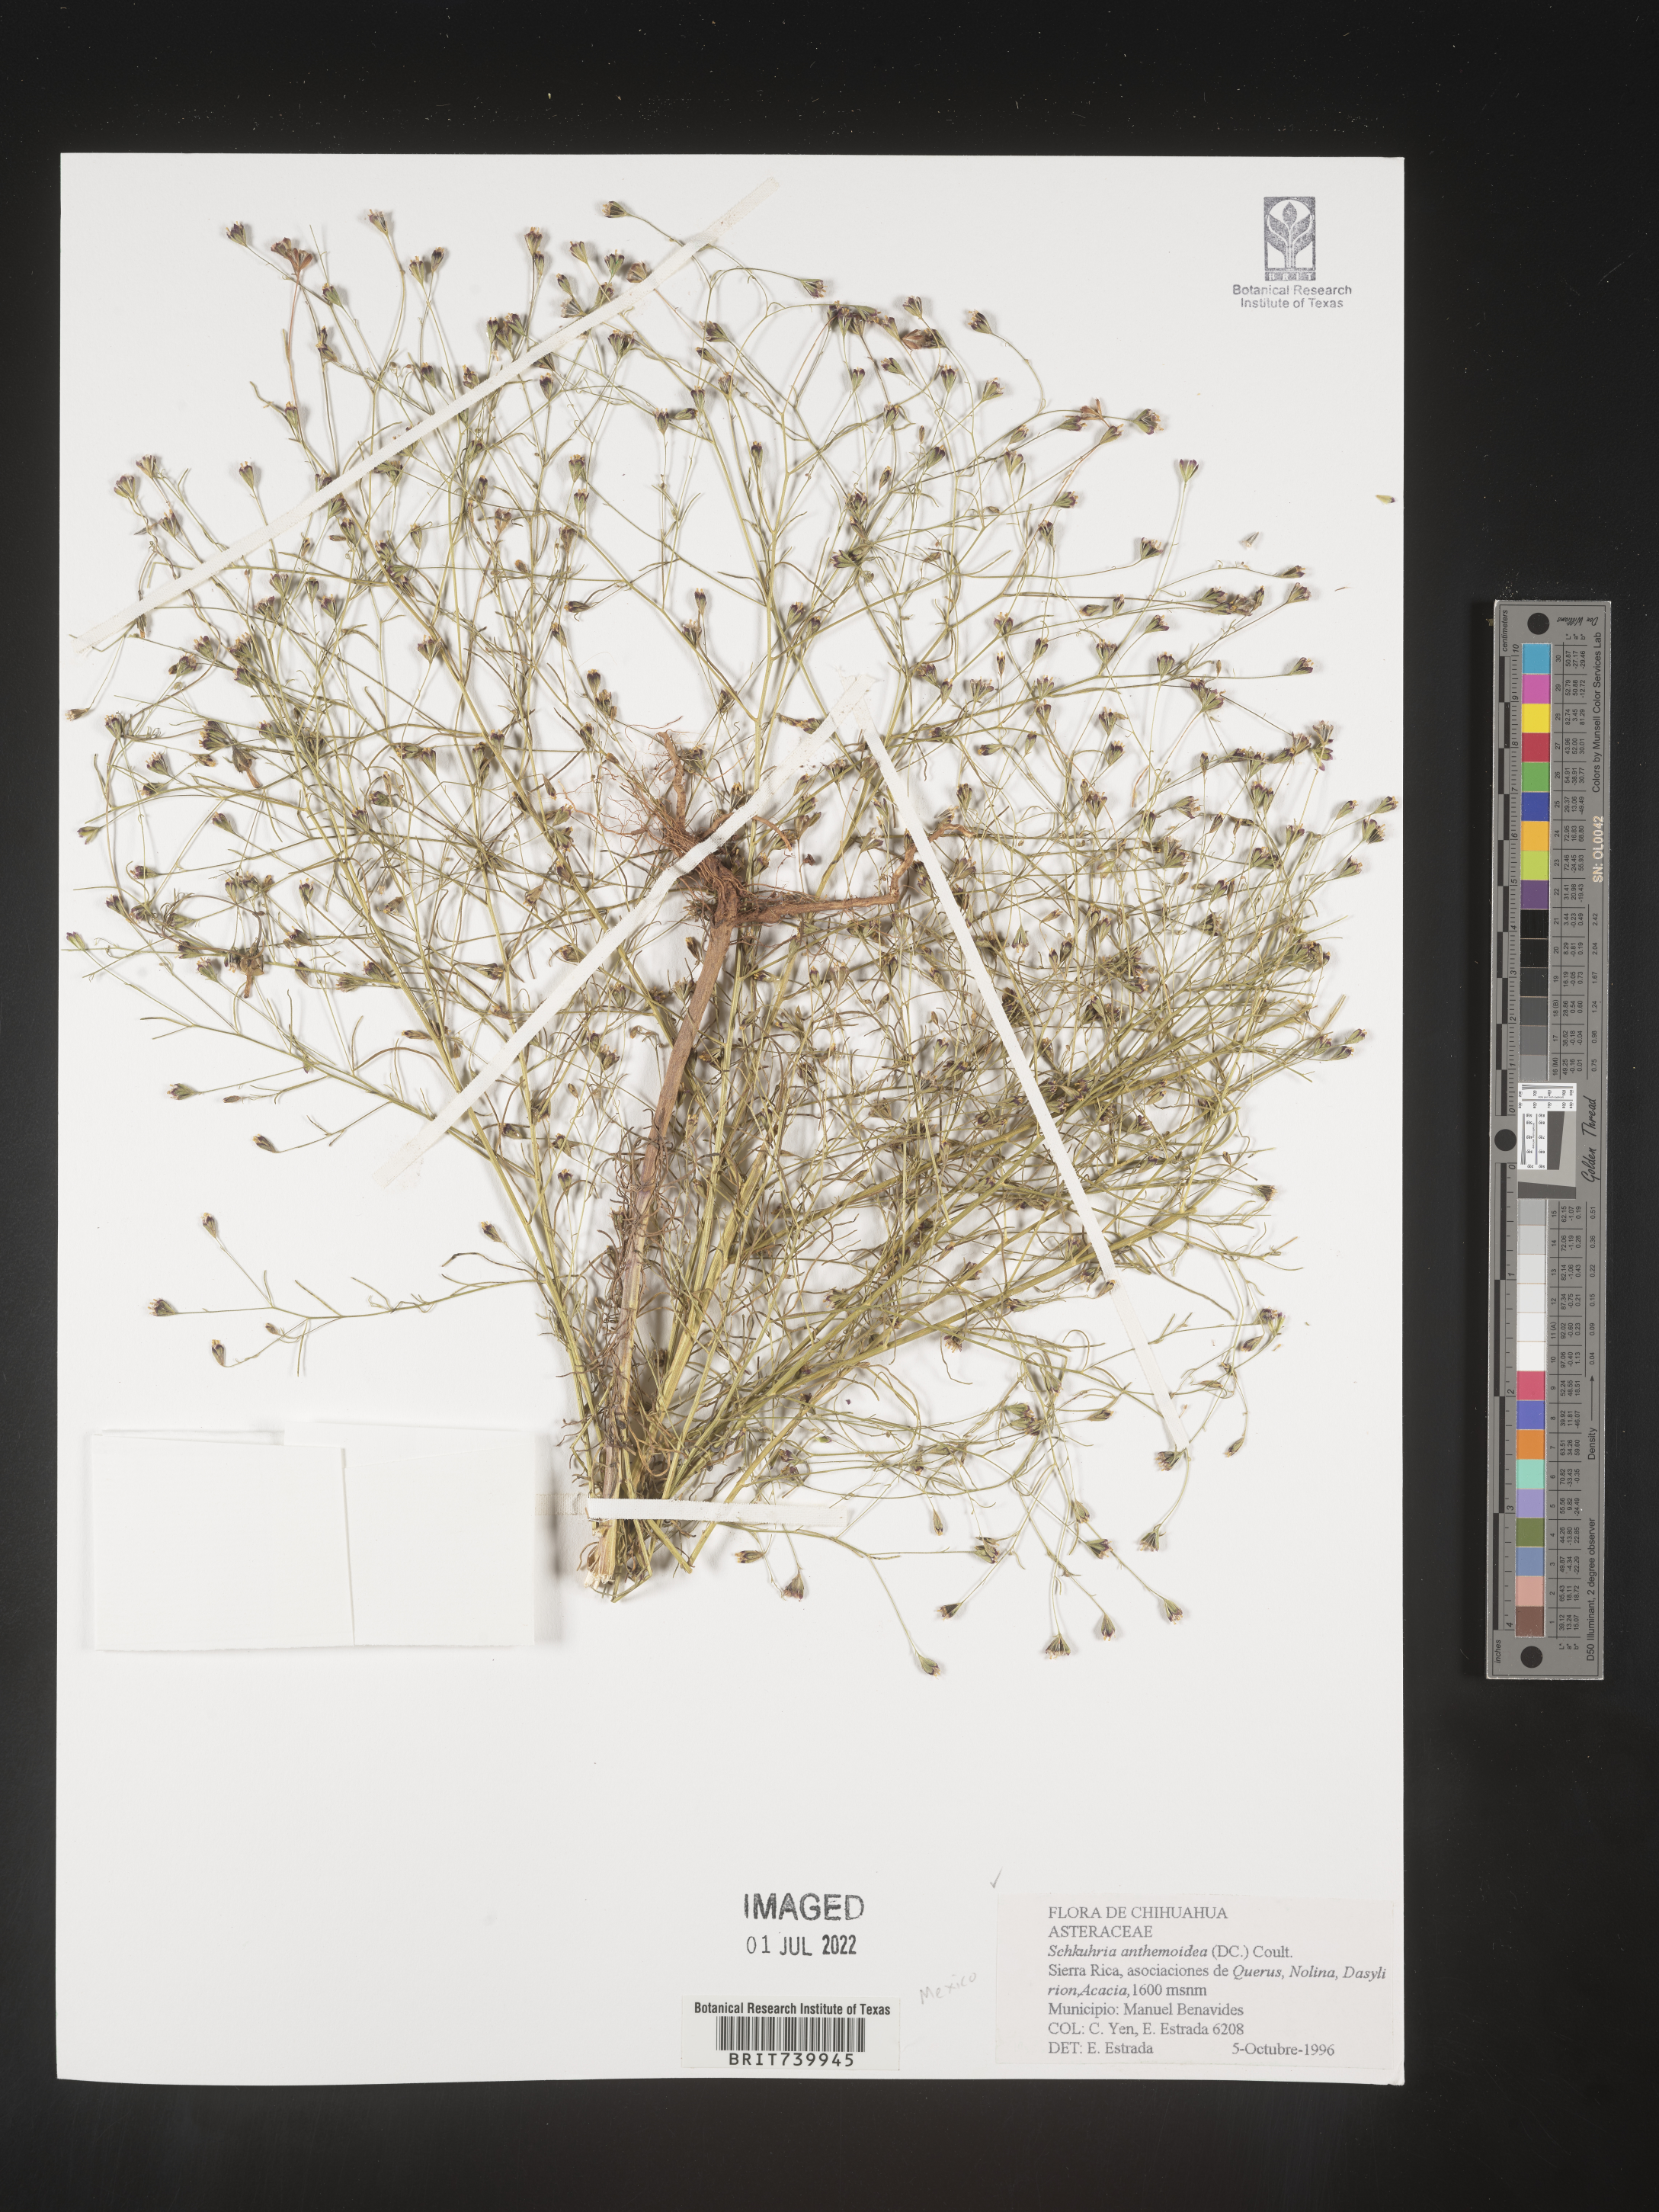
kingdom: Plantae
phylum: Tracheophyta
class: Magnoliopsida
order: Asterales
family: Asteraceae
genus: Schkuhria
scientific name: Schkuhria
